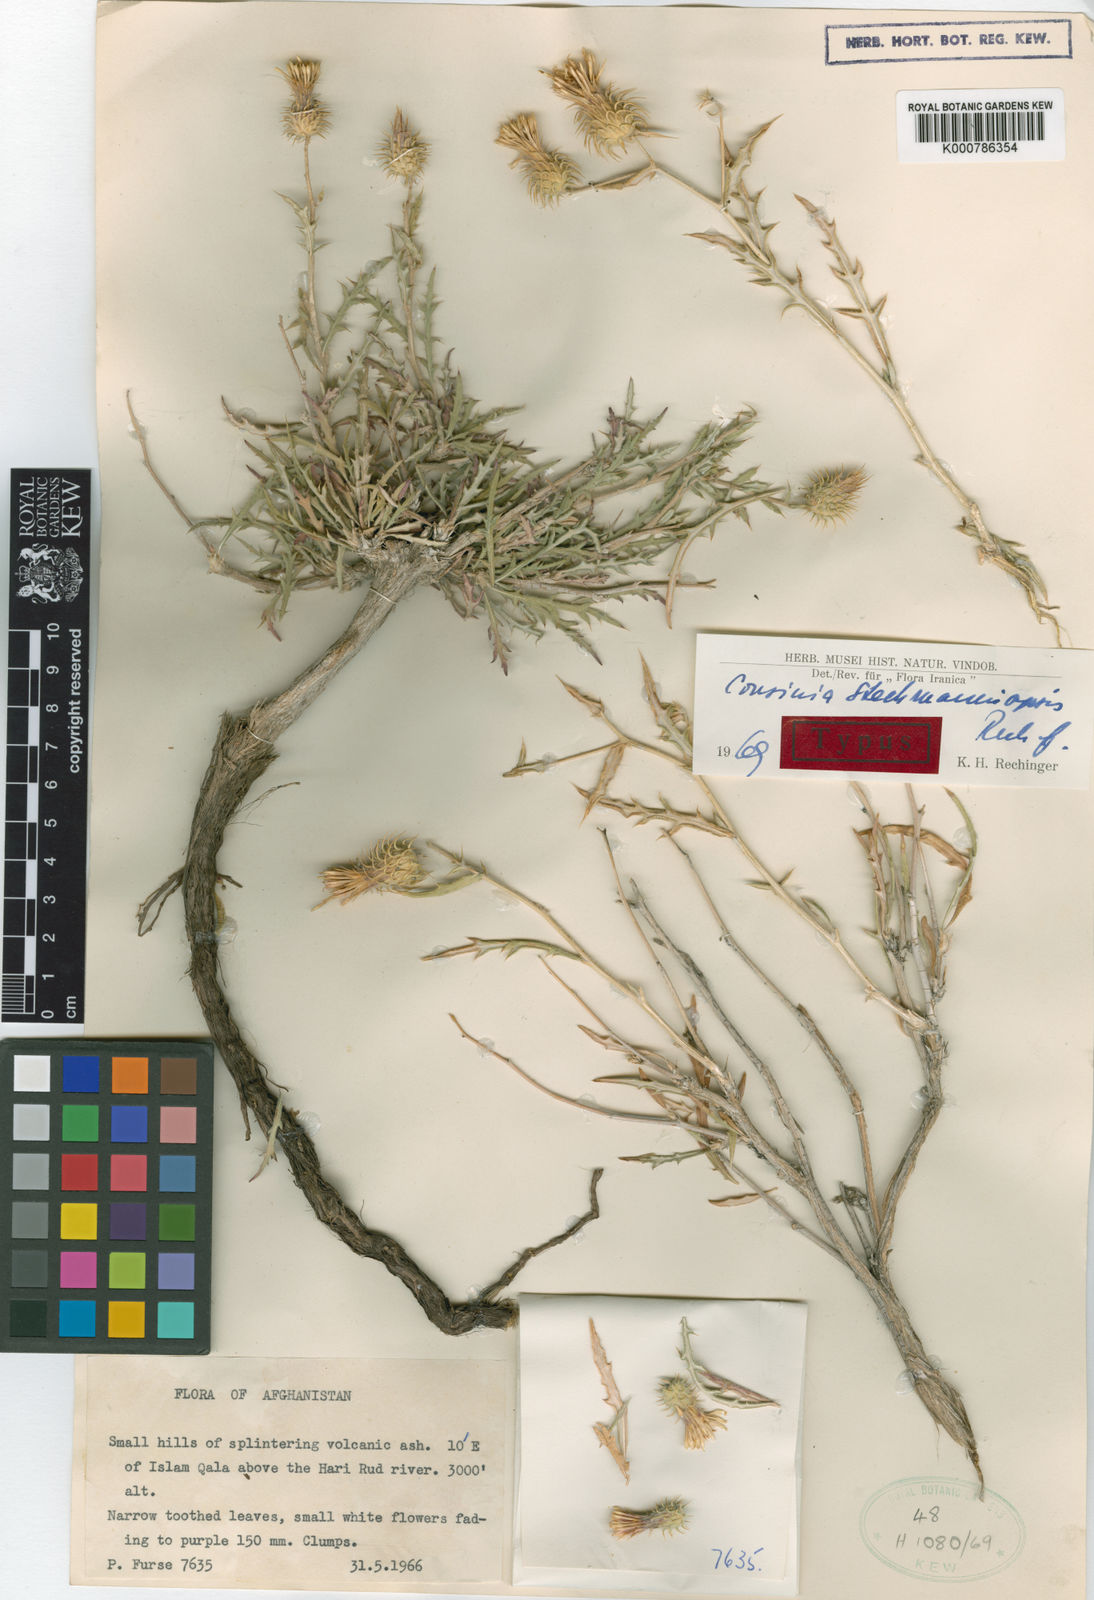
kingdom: Plantae
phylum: Tracheophyta
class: Magnoliopsida
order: Asterales
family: Asteraceae
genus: Cousinia
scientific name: Cousinia stechmanniopsis
